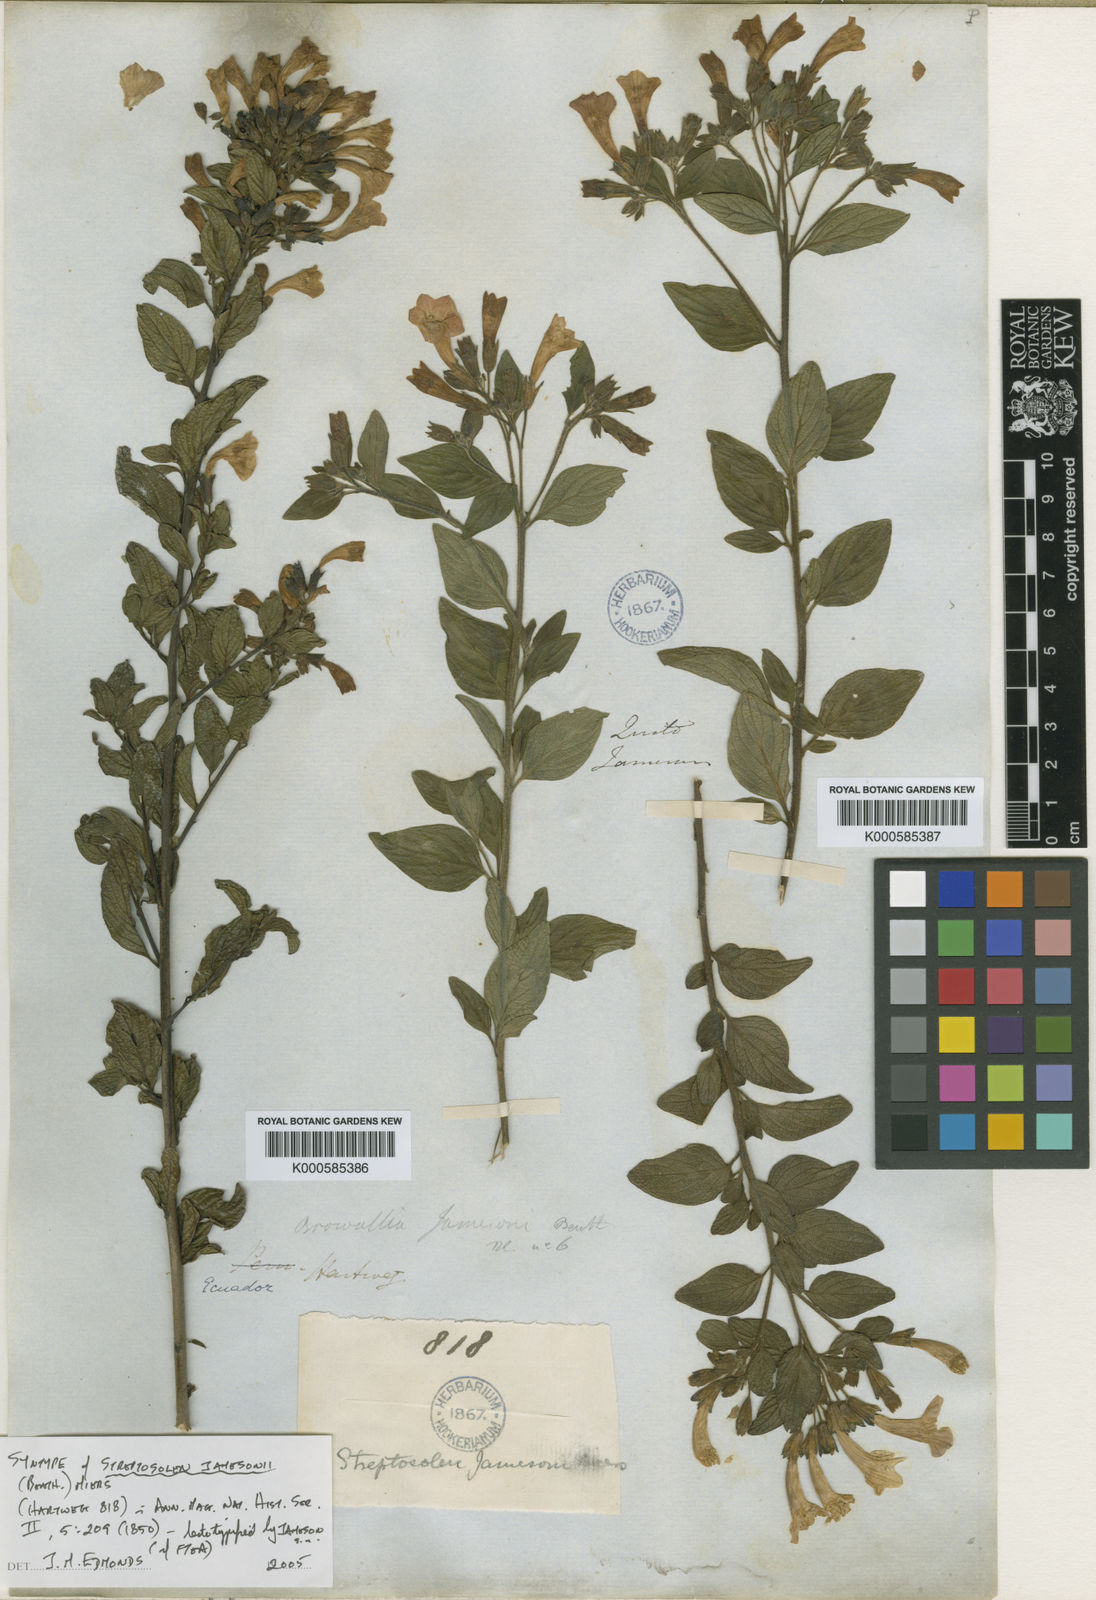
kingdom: Plantae
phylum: Tracheophyta
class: Magnoliopsida
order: Solanales
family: Solanaceae
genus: Streptosolen
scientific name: Streptosolen jamesonii
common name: Marmalade bush
